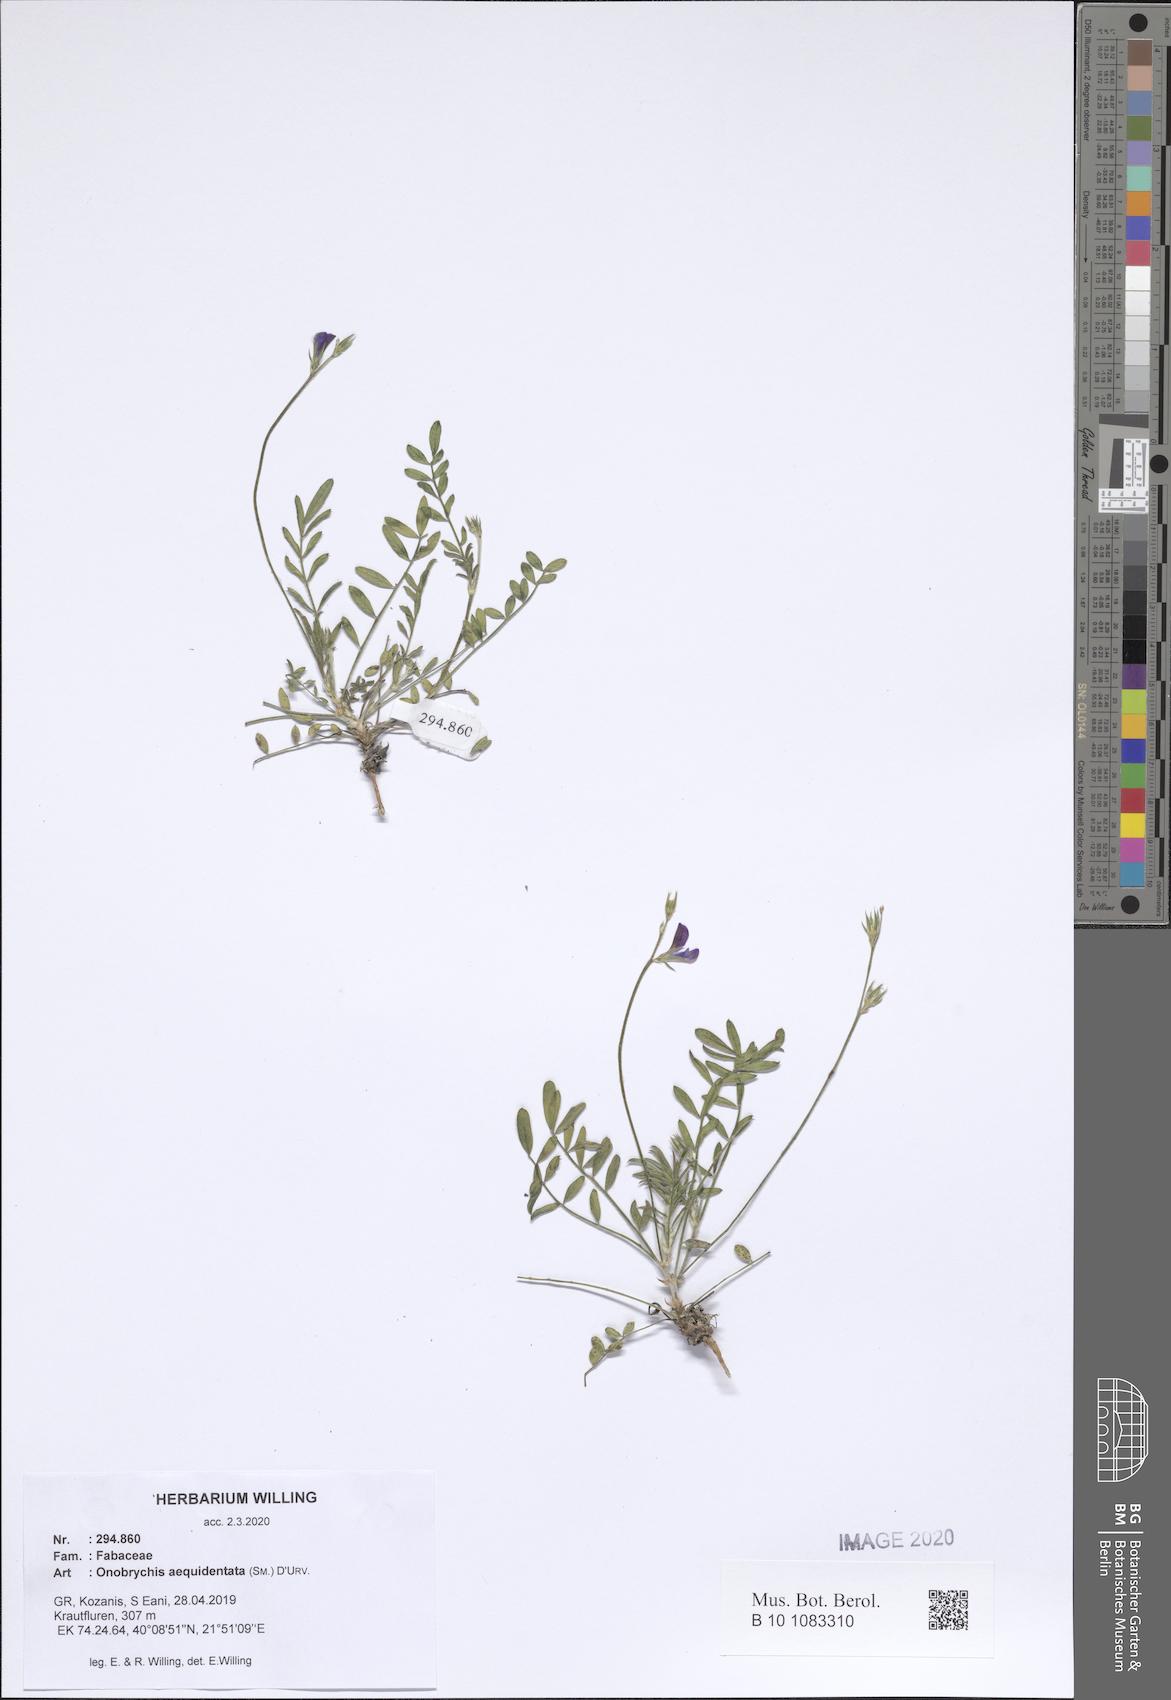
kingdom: Plantae
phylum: Tracheophyta
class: Magnoliopsida
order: Fabales
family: Fabaceae
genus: Onobrychis
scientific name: Onobrychis aequidentata
